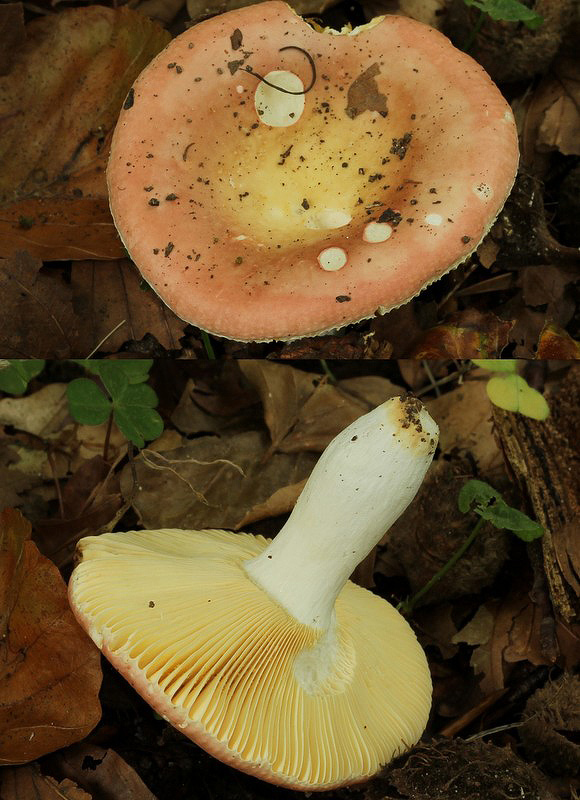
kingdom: Fungi
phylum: Basidiomycota
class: Agaricomycetes
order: Russulales
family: Russulaceae
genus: Russula
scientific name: Russula veternosa
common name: blødkødet skørhat
